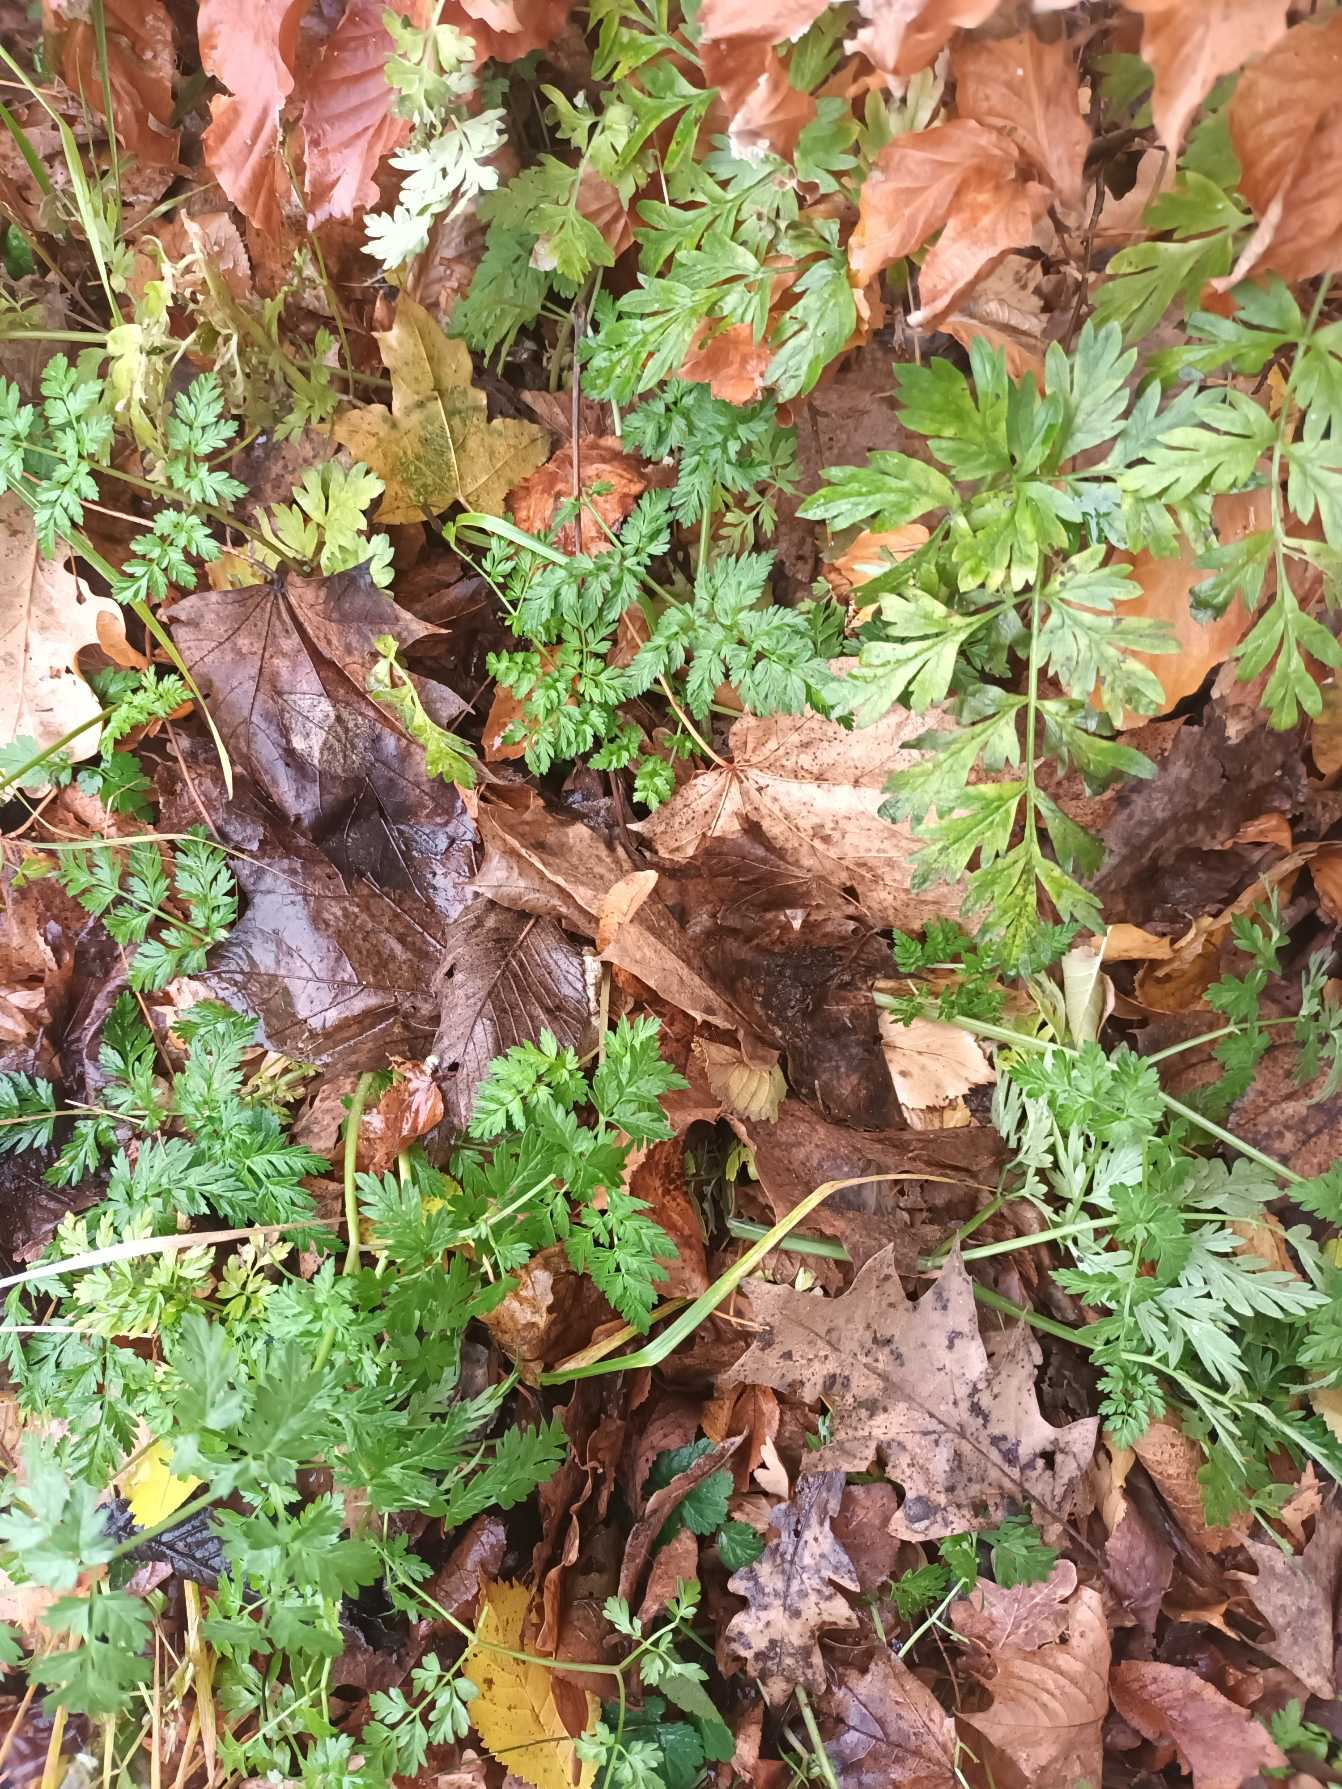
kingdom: Plantae
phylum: Tracheophyta
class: Magnoliopsida
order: Apiales
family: Apiaceae
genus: Anthriscus
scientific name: Anthriscus sylvestris
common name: Vild kørvel
